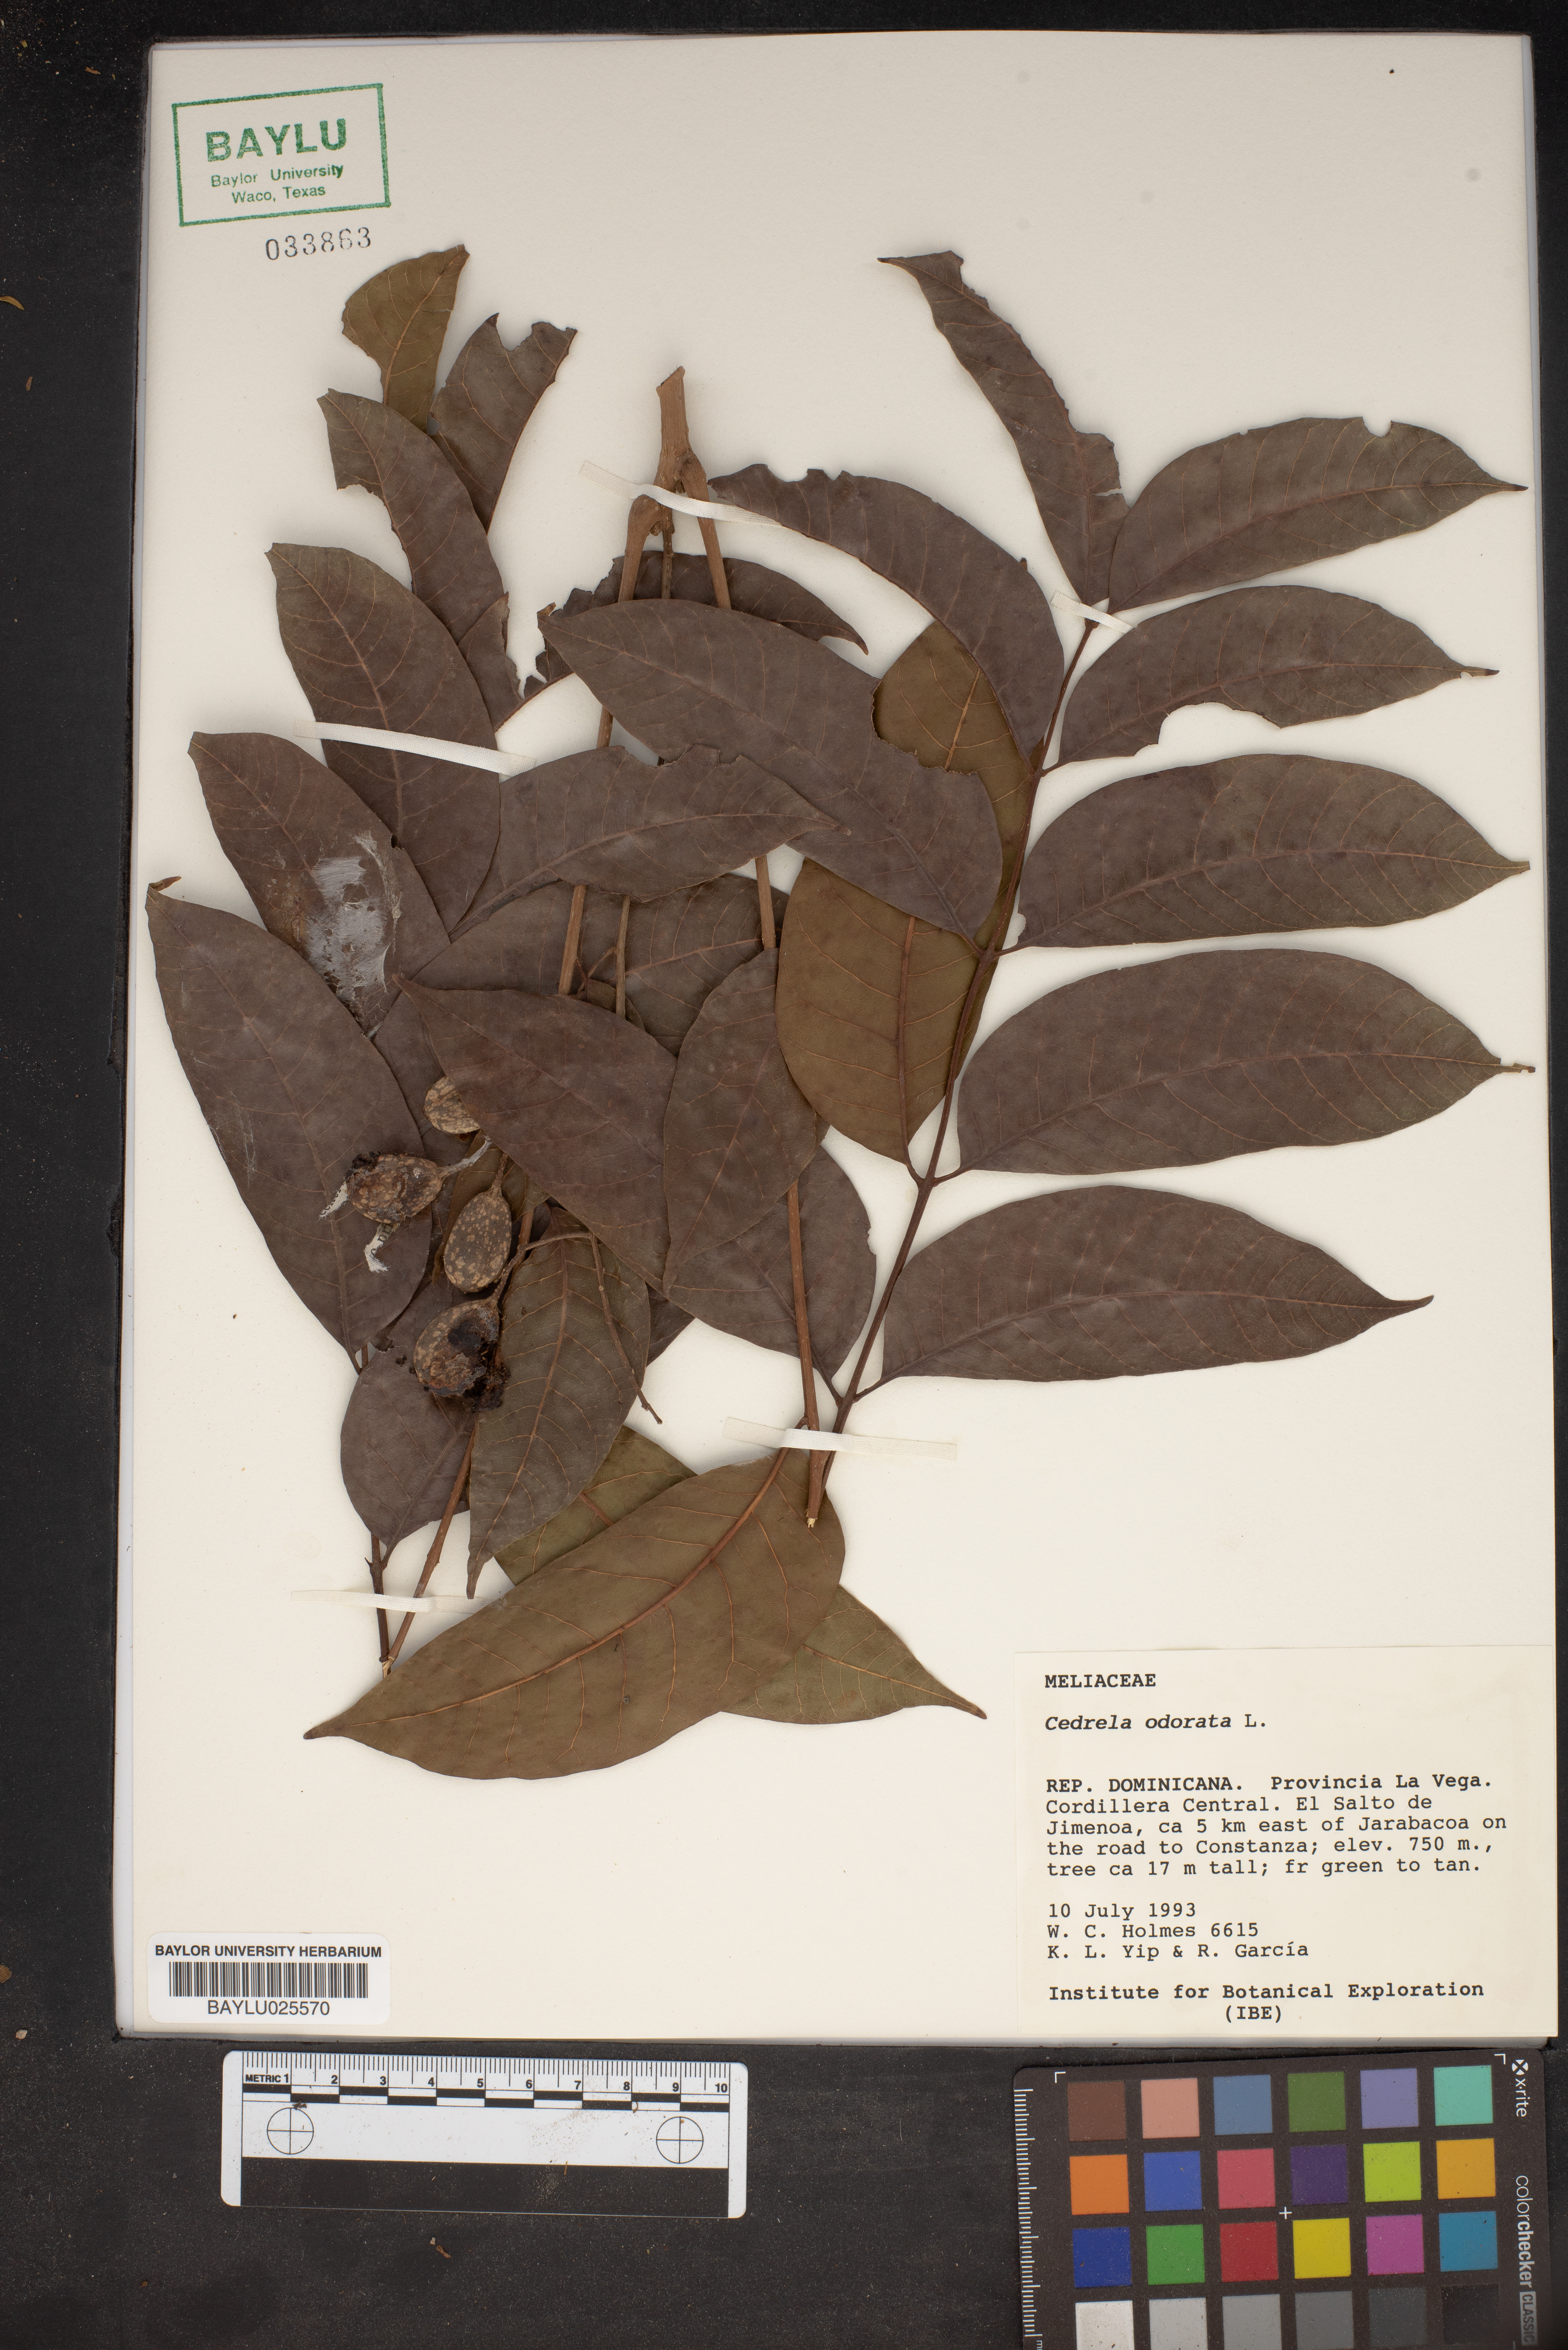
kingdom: Plantae
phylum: Tracheophyta
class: Magnoliopsida
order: Sapindales
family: Meliaceae
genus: Cedrela
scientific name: Cedrela odorata
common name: Red cedar
